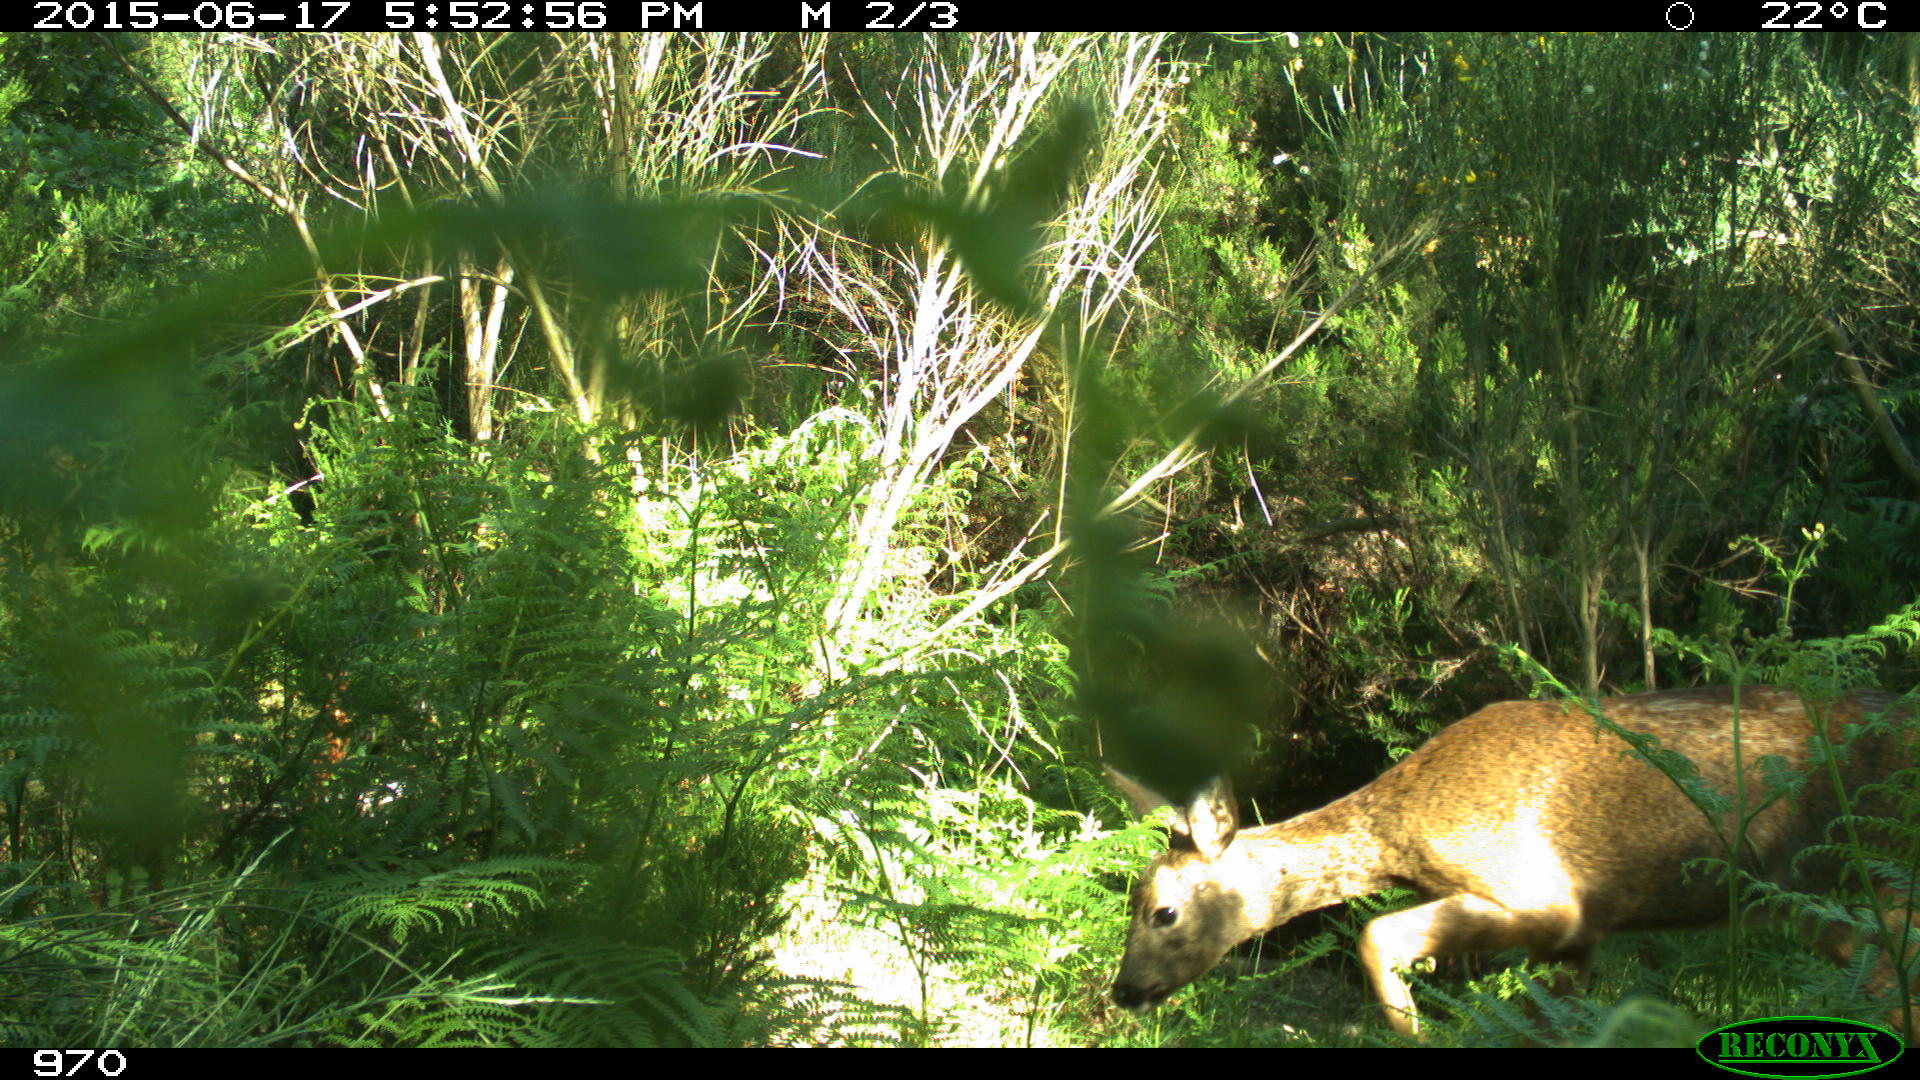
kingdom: Animalia
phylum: Chordata
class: Mammalia
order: Artiodactyla
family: Cervidae
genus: Capreolus
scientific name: Capreolus capreolus
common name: Western roe deer
